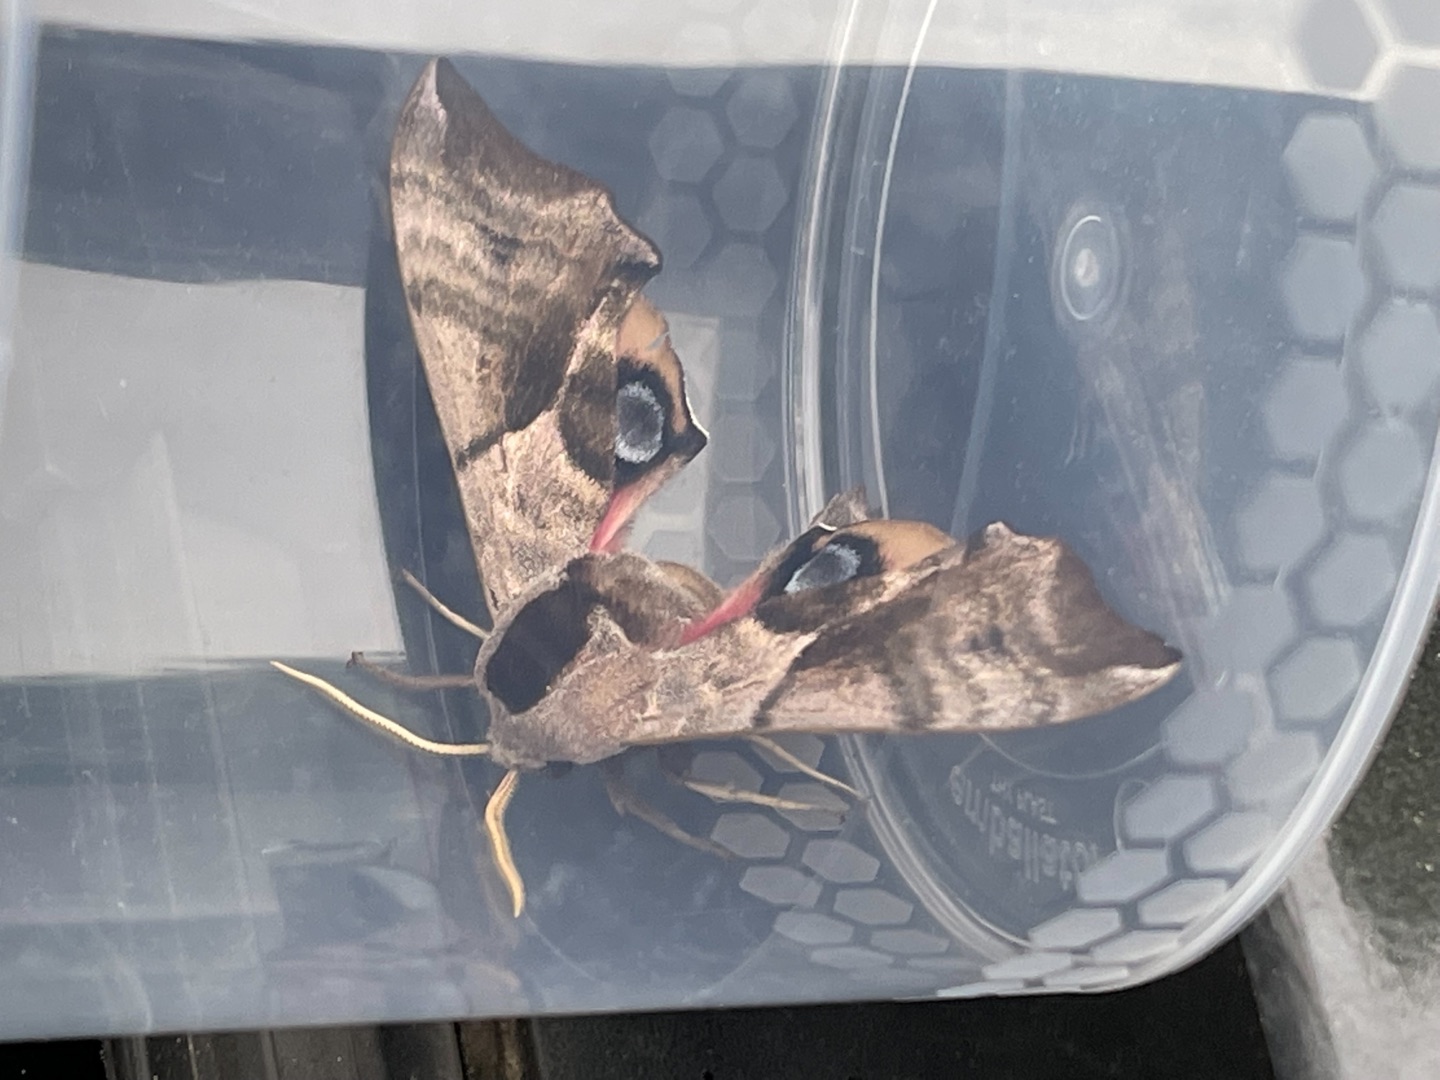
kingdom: Animalia
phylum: Arthropoda
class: Insecta
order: Lepidoptera
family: Sphingidae
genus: Smerinthus
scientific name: Smerinthus ocellata
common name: Aftenpåfugleøje
